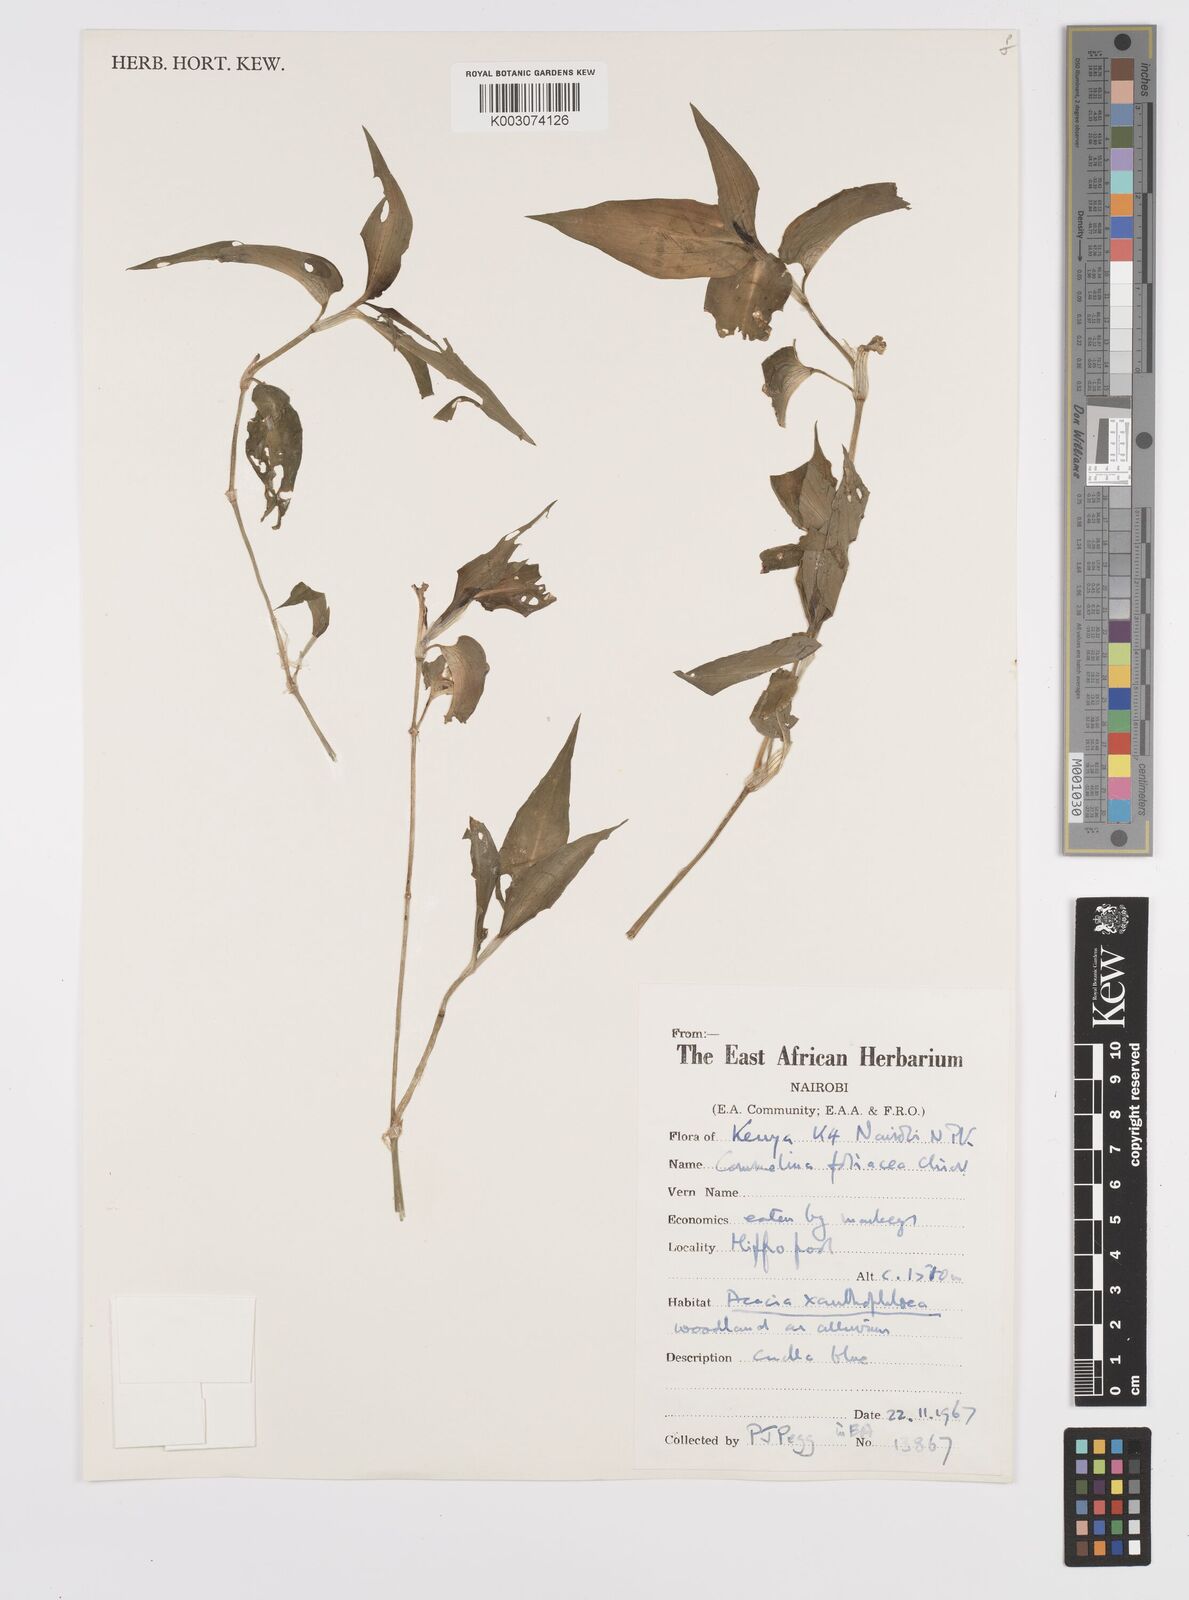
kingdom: Plantae
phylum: Tracheophyta
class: Liliopsida
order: Commelinales
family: Commelinaceae
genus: Commelina
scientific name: Commelina foliacea
